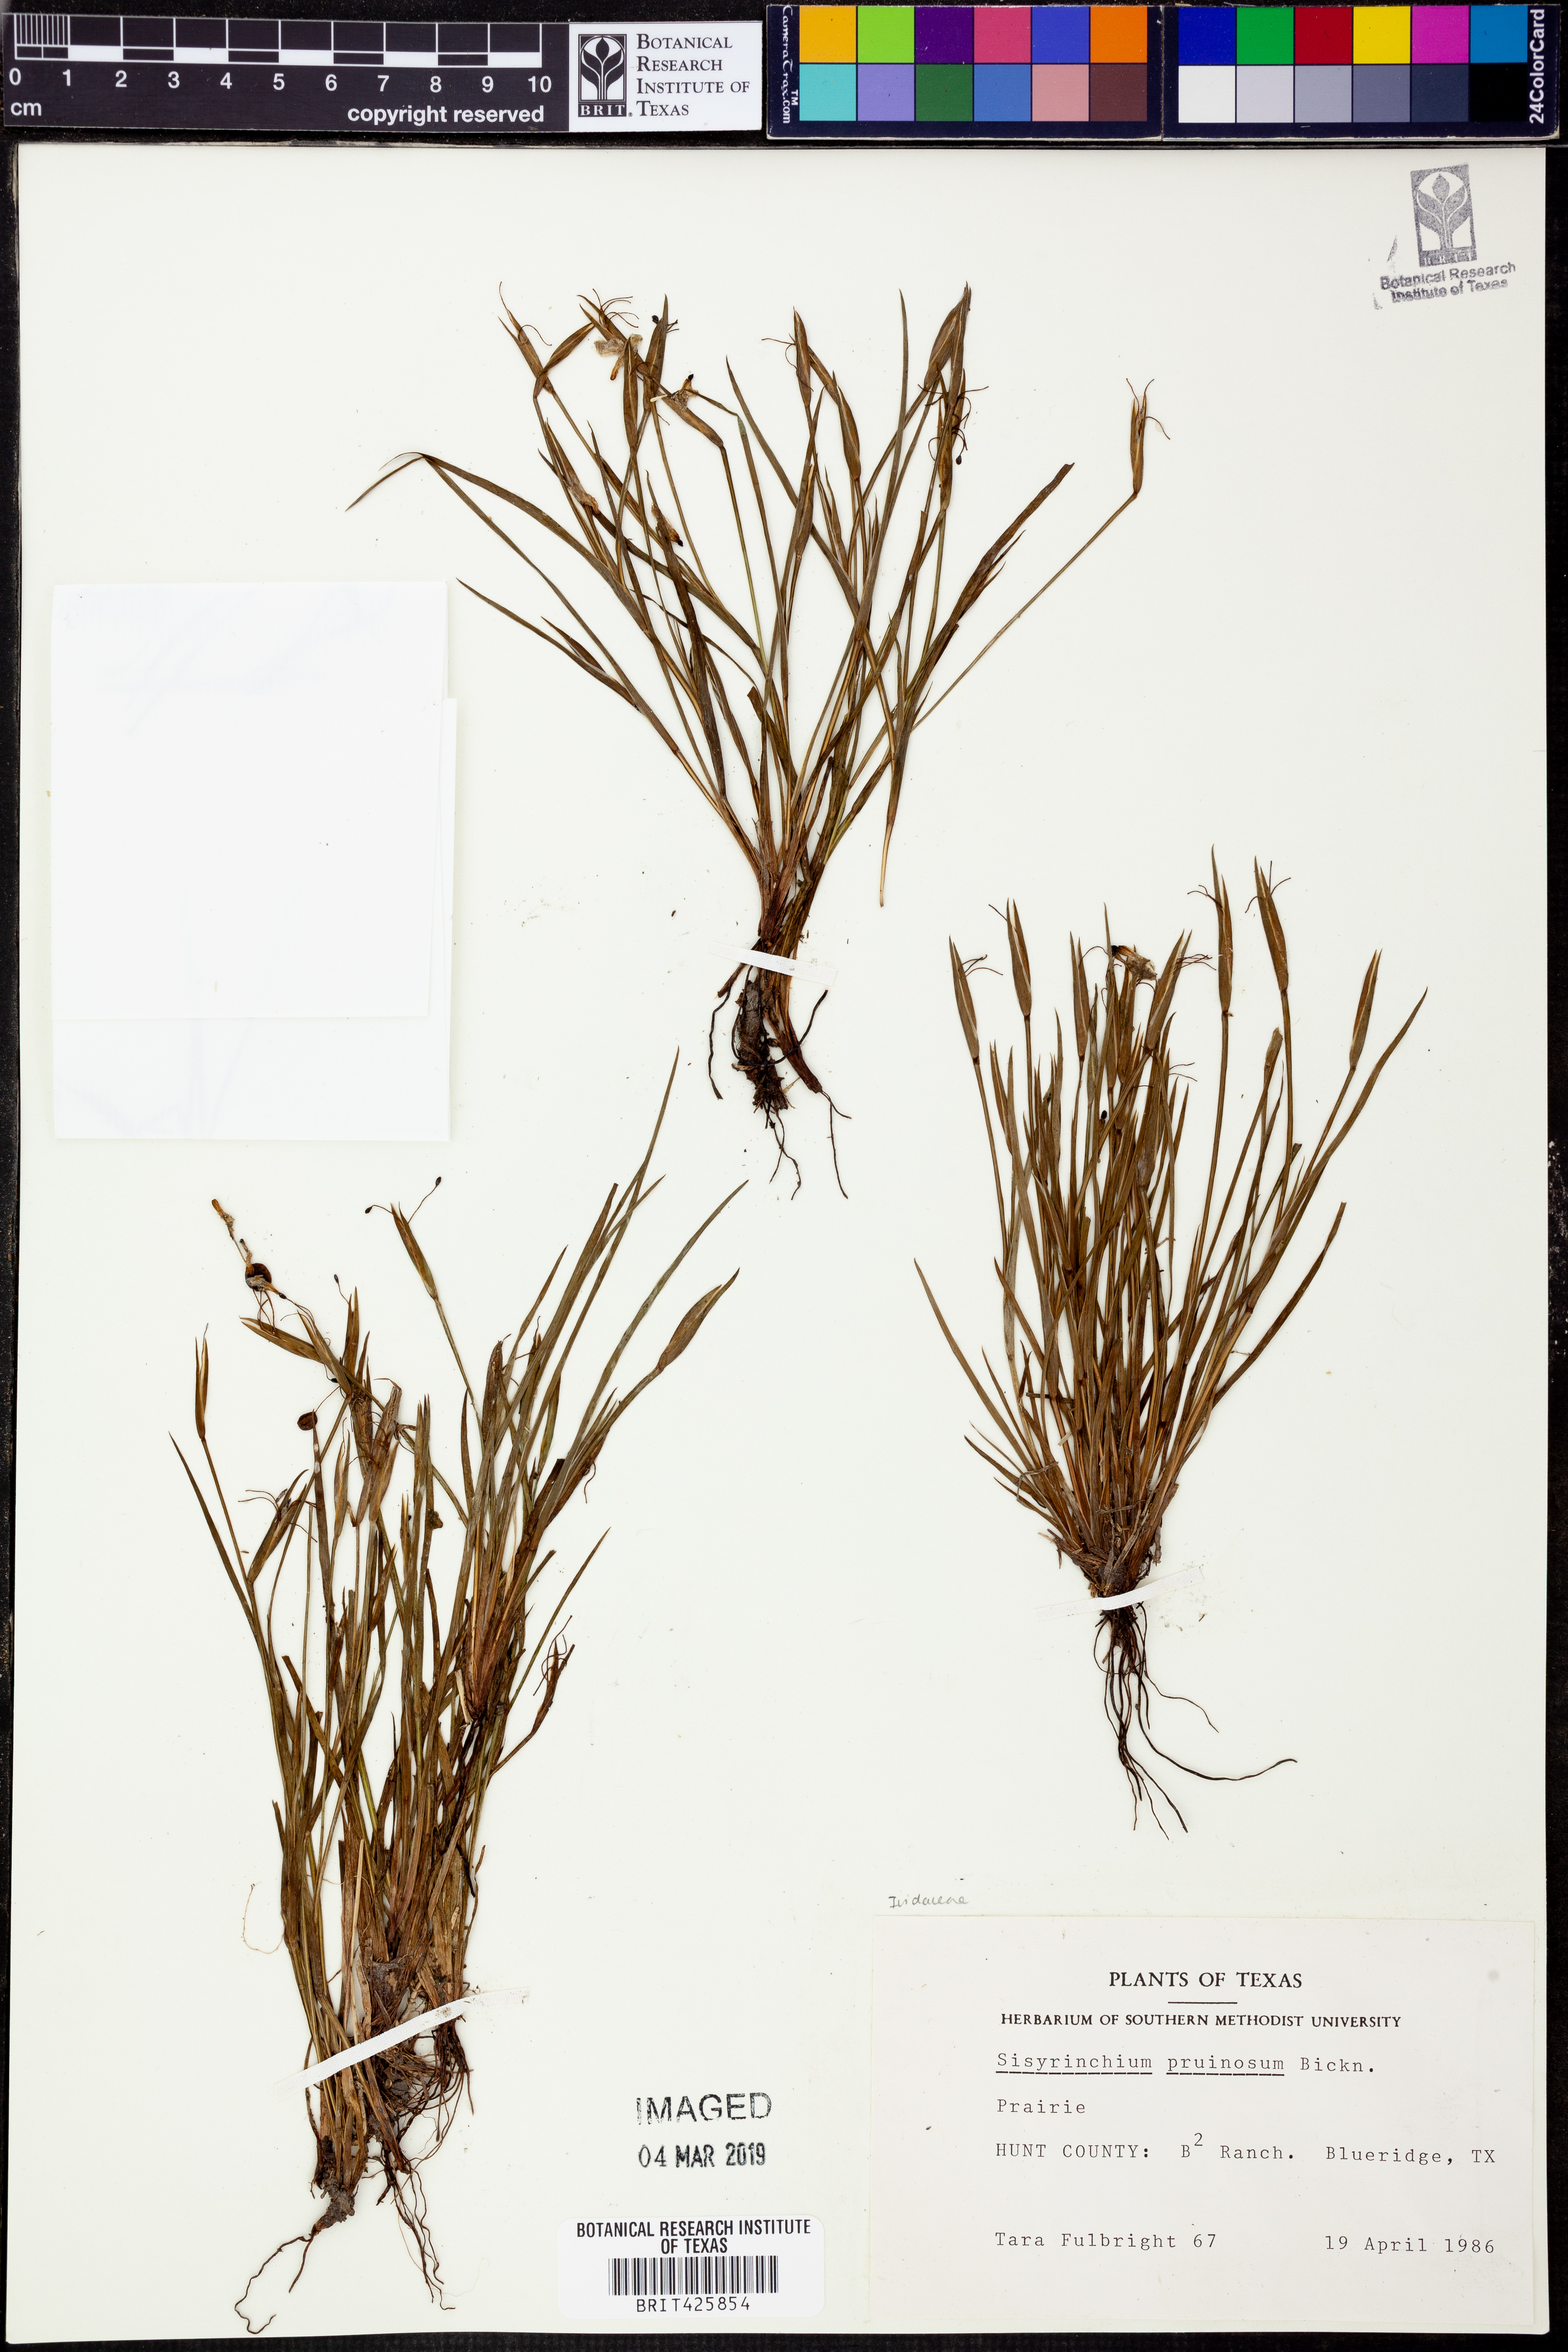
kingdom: Plantae
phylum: Tracheophyta
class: Liliopsida
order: Asparagales
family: Iridaceae
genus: Sisyrinchium
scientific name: Sisyrinchium pruinosum
